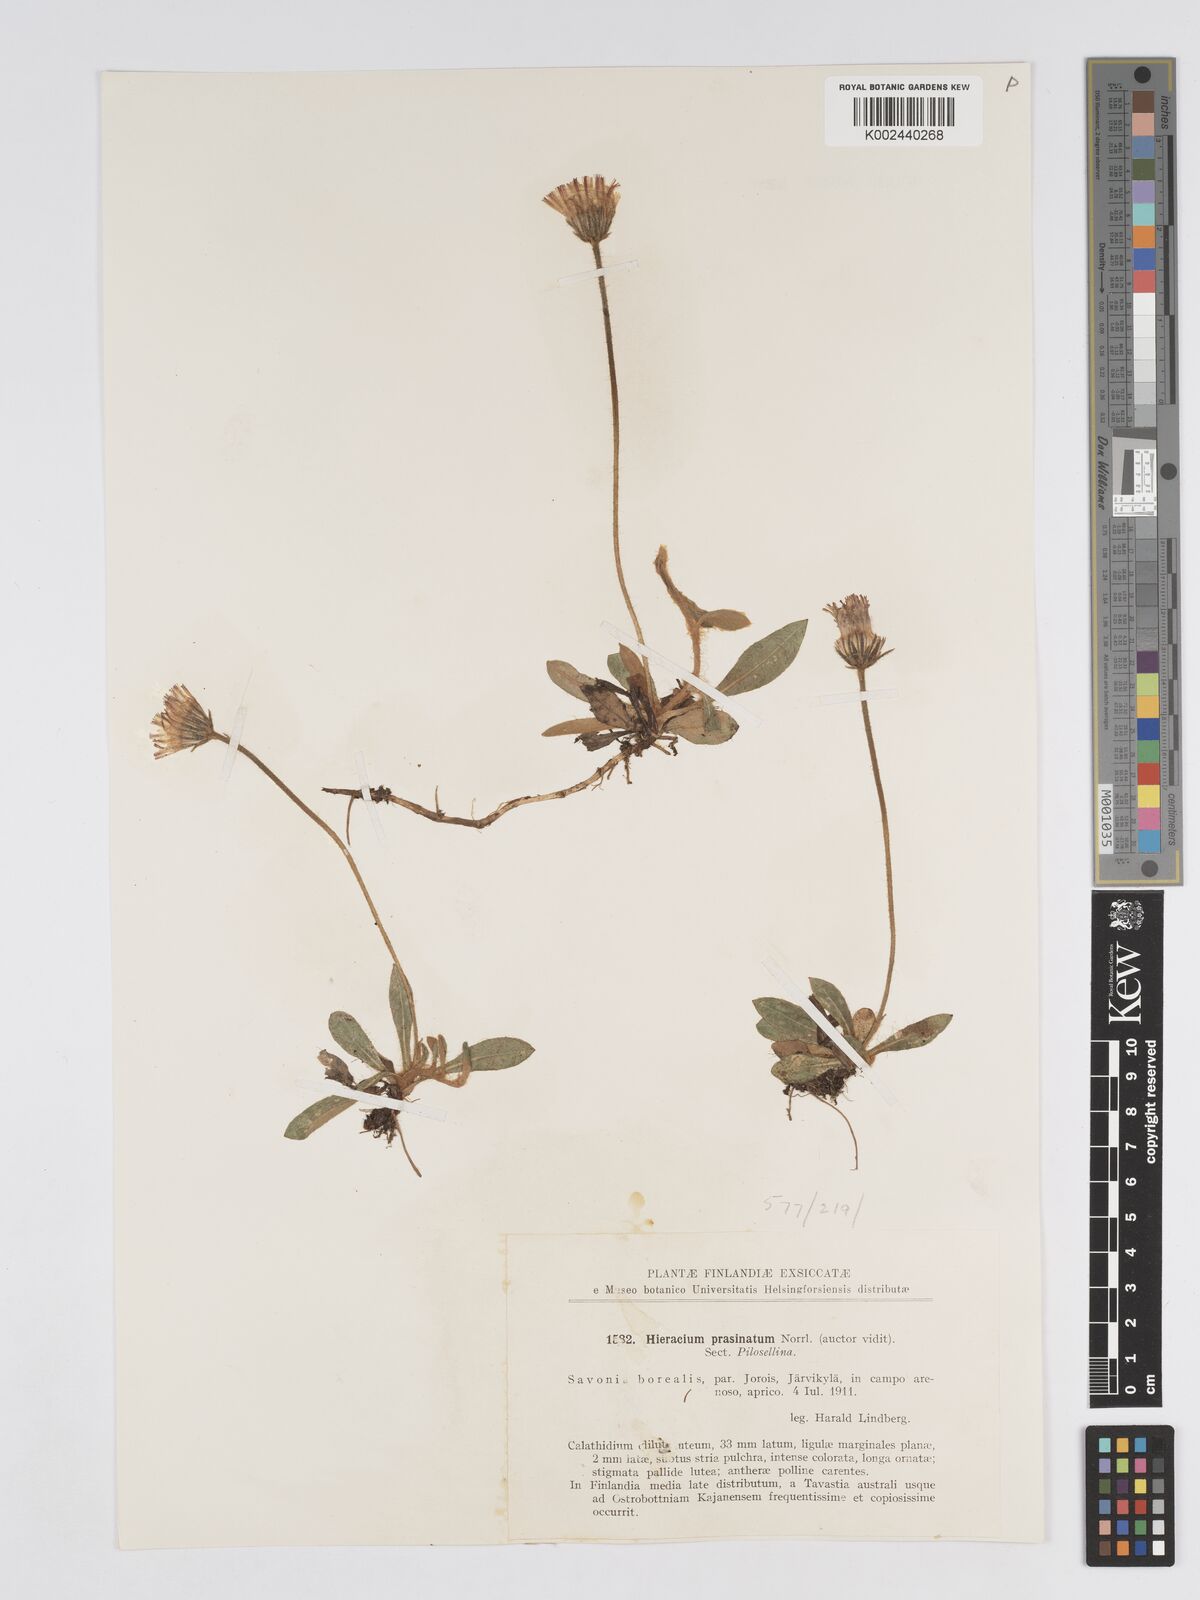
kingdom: Plantae
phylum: Tracheophyta
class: Magnoliopsida
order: Asterales
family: Asteraceae
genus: Hieracium
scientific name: Hieracium
